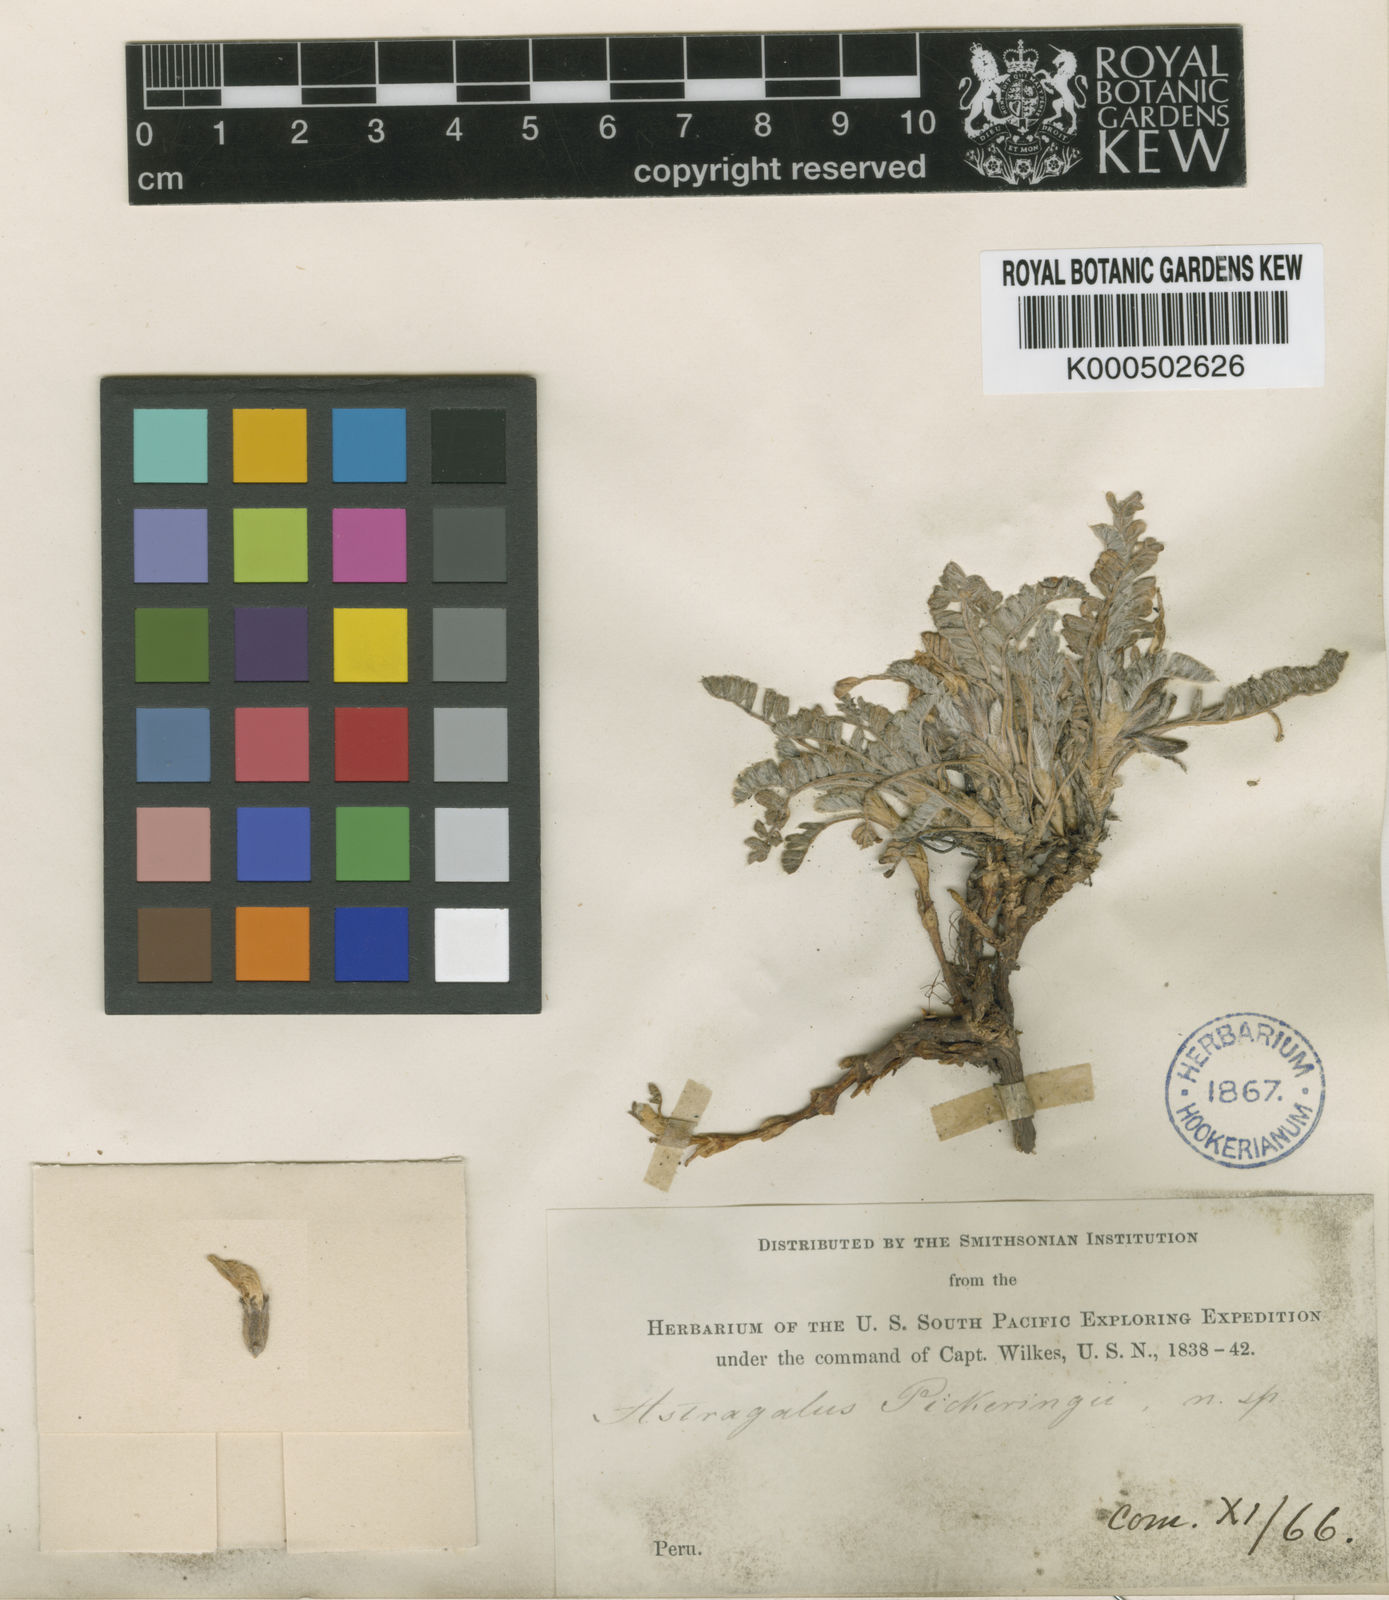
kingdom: Plantae
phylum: Tracheophyta
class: Magnoliopsida
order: Fabales
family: Fabaceae
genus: Astragalus
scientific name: Astragalus pickeringii
